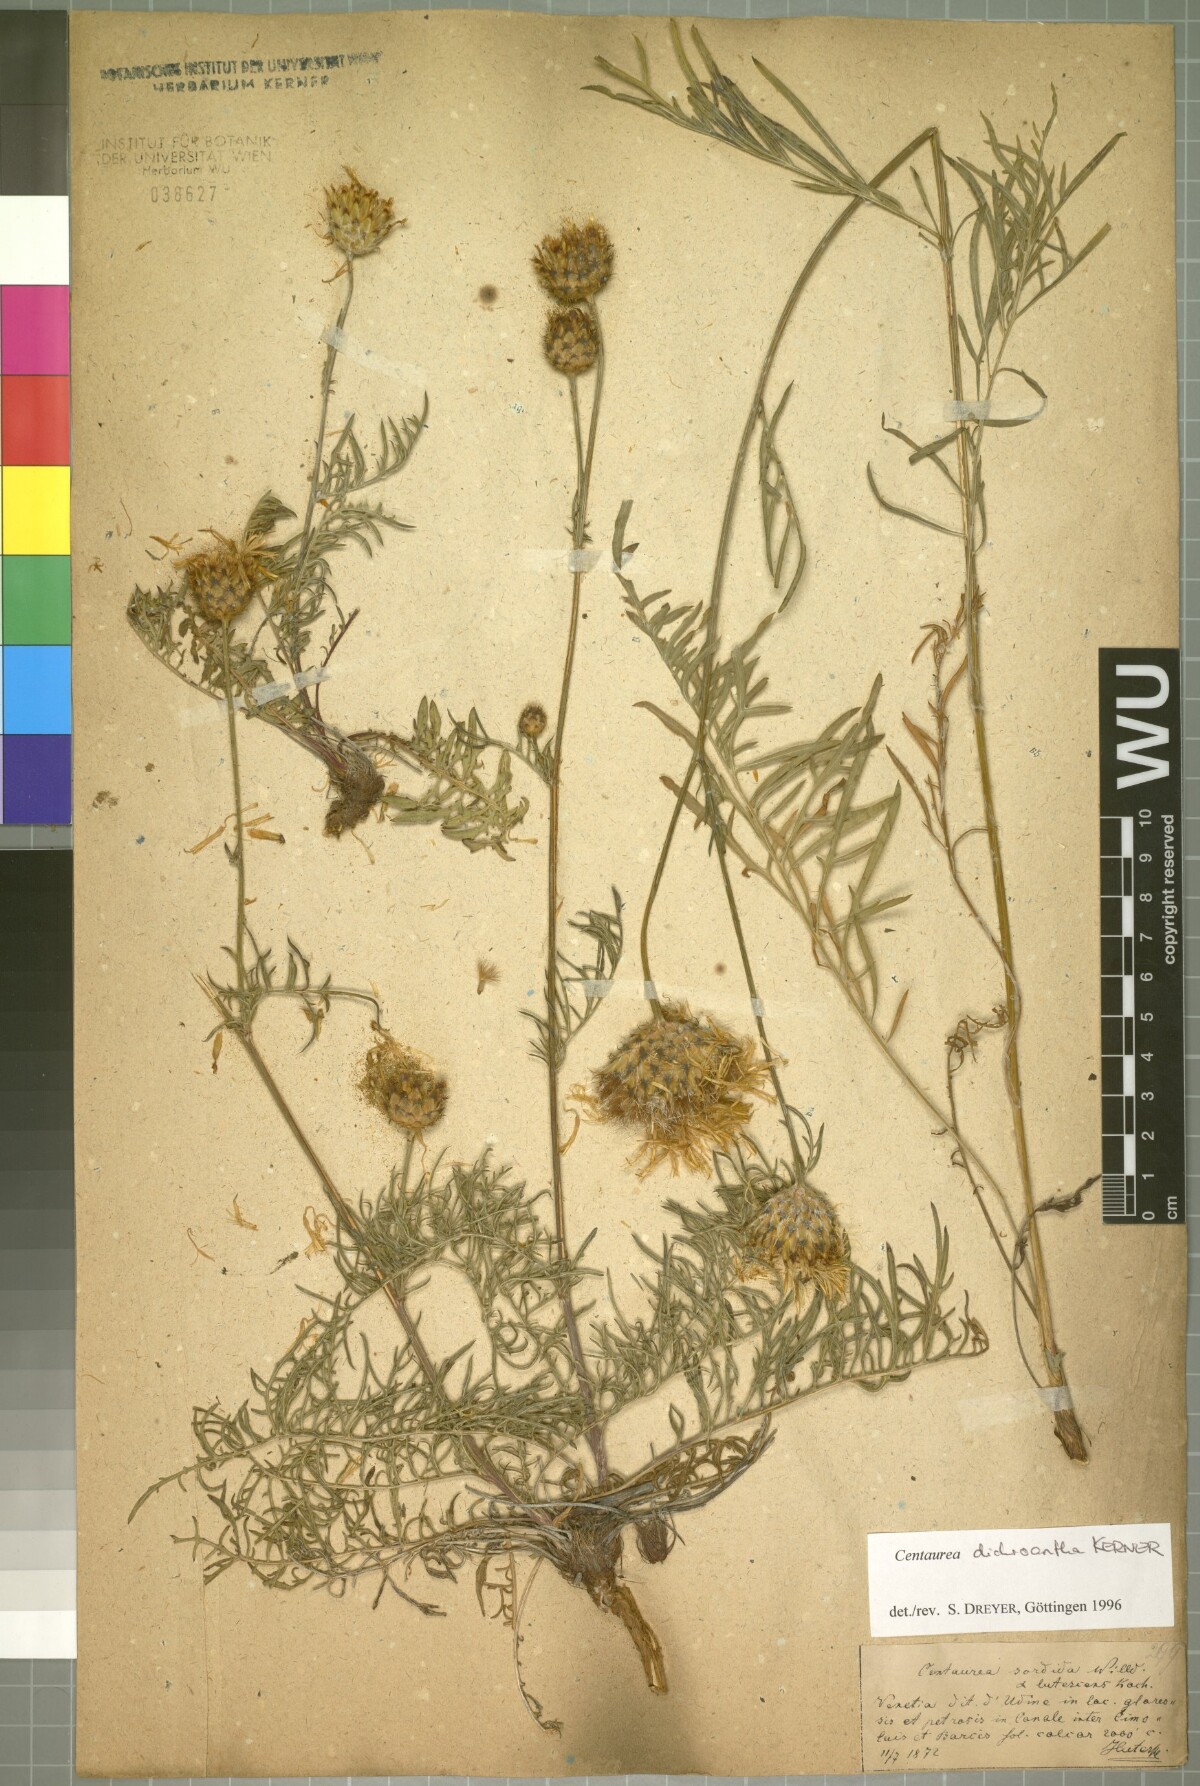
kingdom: Plantae
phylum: Tracheophyta
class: Magnoliopsida
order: Asterales
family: Asteraceae
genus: Centaurea
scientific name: Centaurea dichroantha
